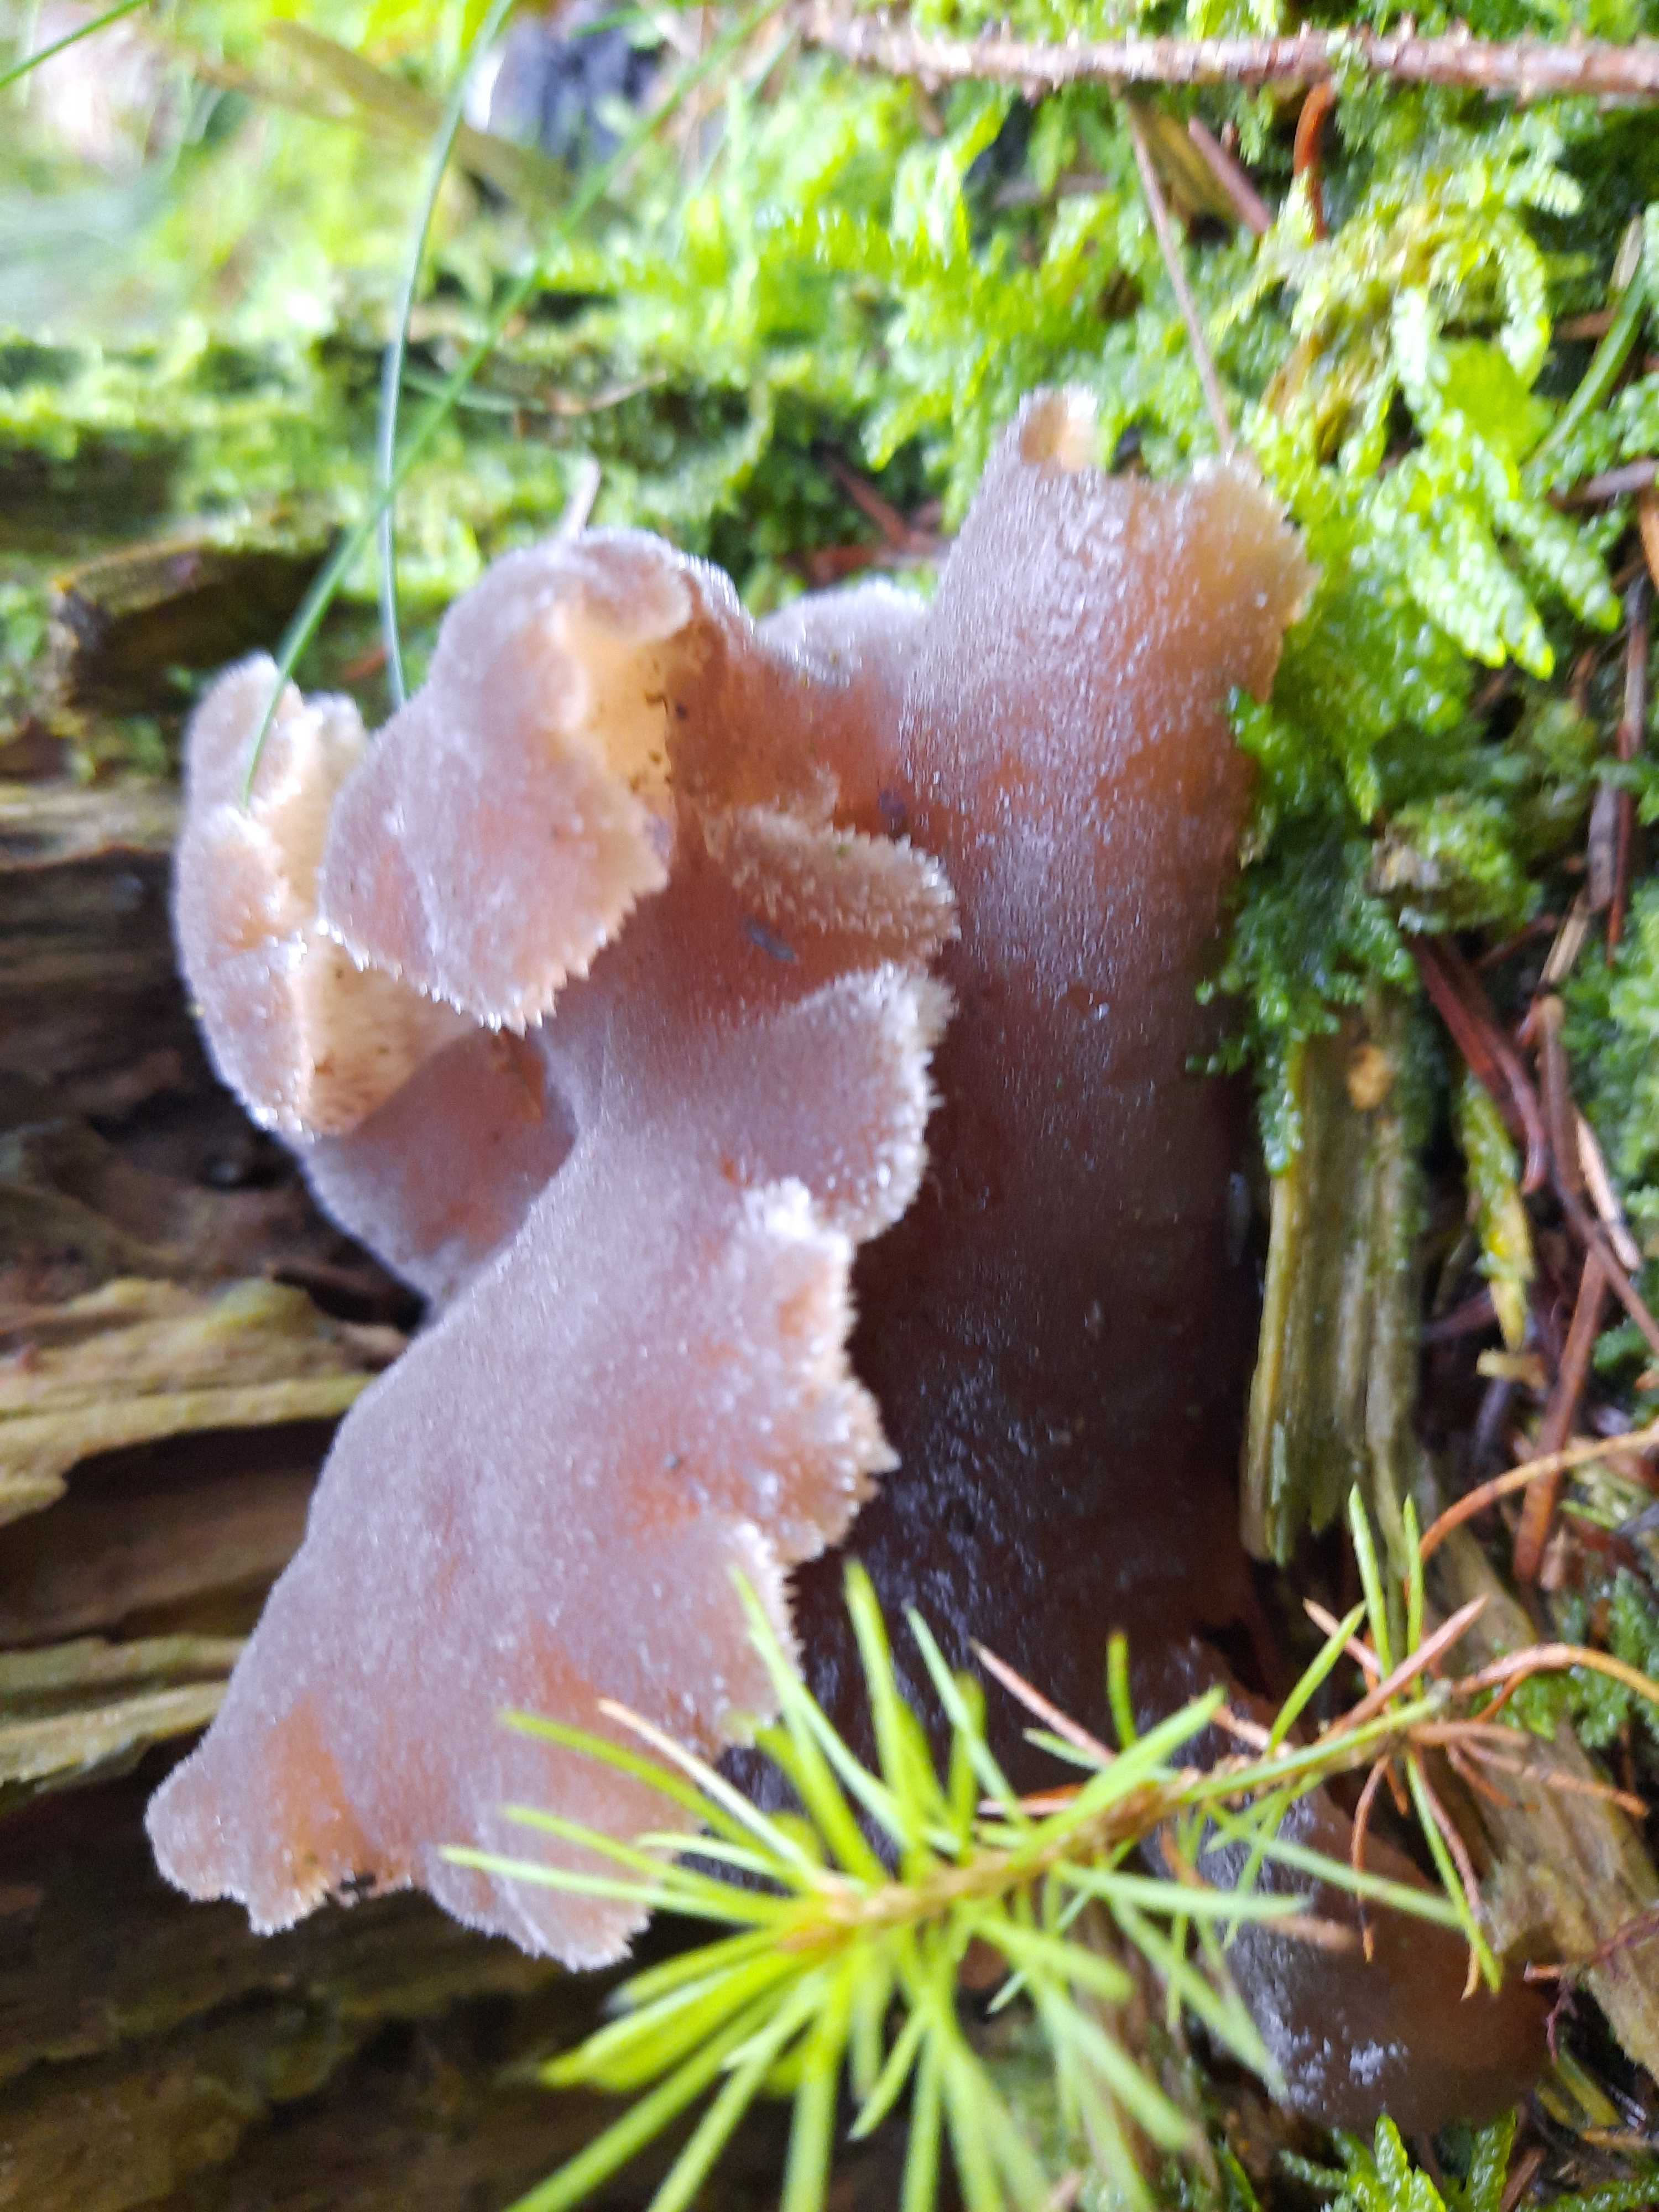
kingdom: Fungi
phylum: Basidiomycota
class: Agaricomycetes
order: Auriculariales
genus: Pseudohydnum
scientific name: Pseudohydnum gelatinosum
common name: bævretand
